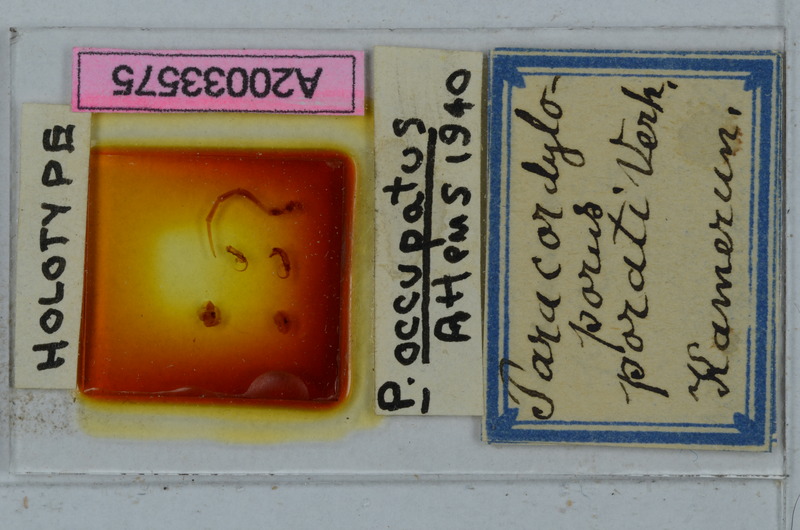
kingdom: Animalia
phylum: Arthropoda
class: Diplopoda
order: Polydesmida
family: Chelodesmidae
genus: Paracordyloporus
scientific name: Paracordyloporus porati
